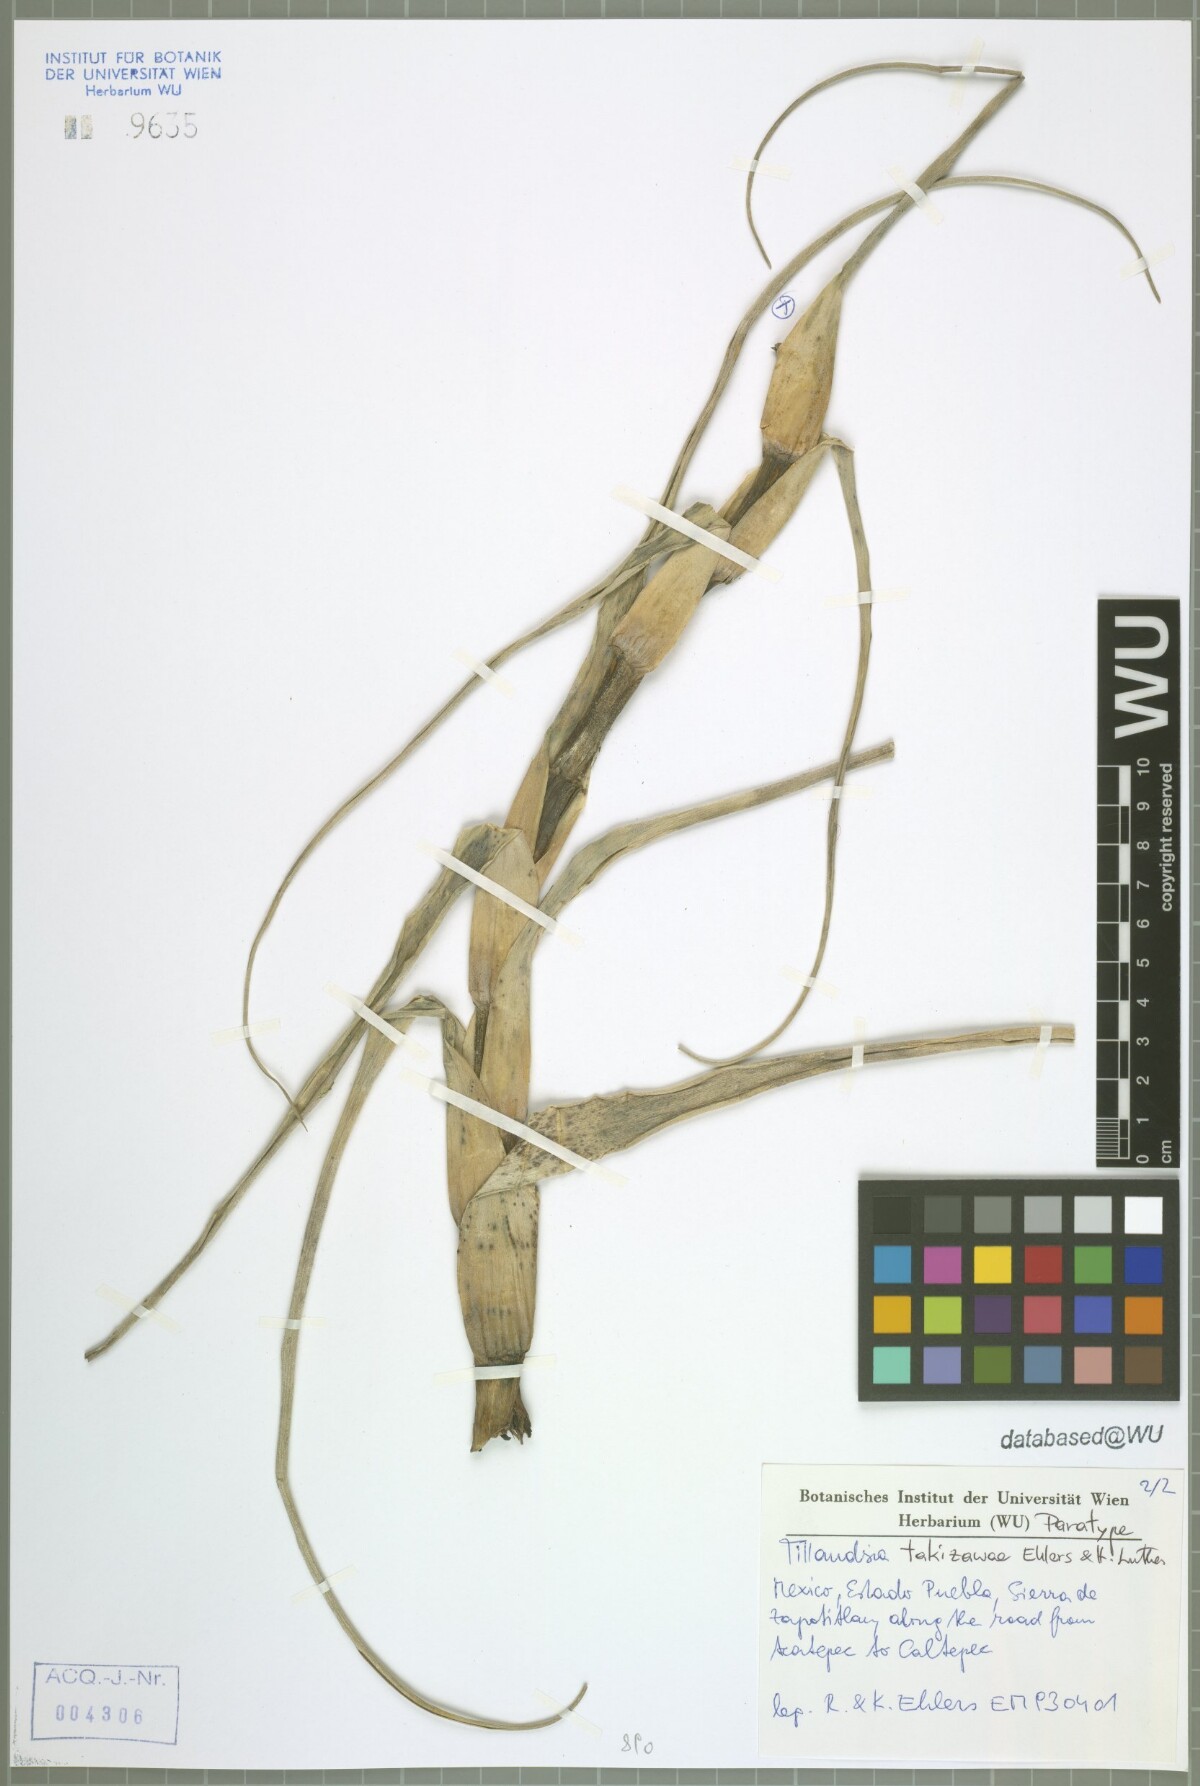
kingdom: Plantae
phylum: Tracheophyta
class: Liliopsida
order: Poales
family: Bromeliaceae
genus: Tillandsia
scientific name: Tillandsia takizawae
